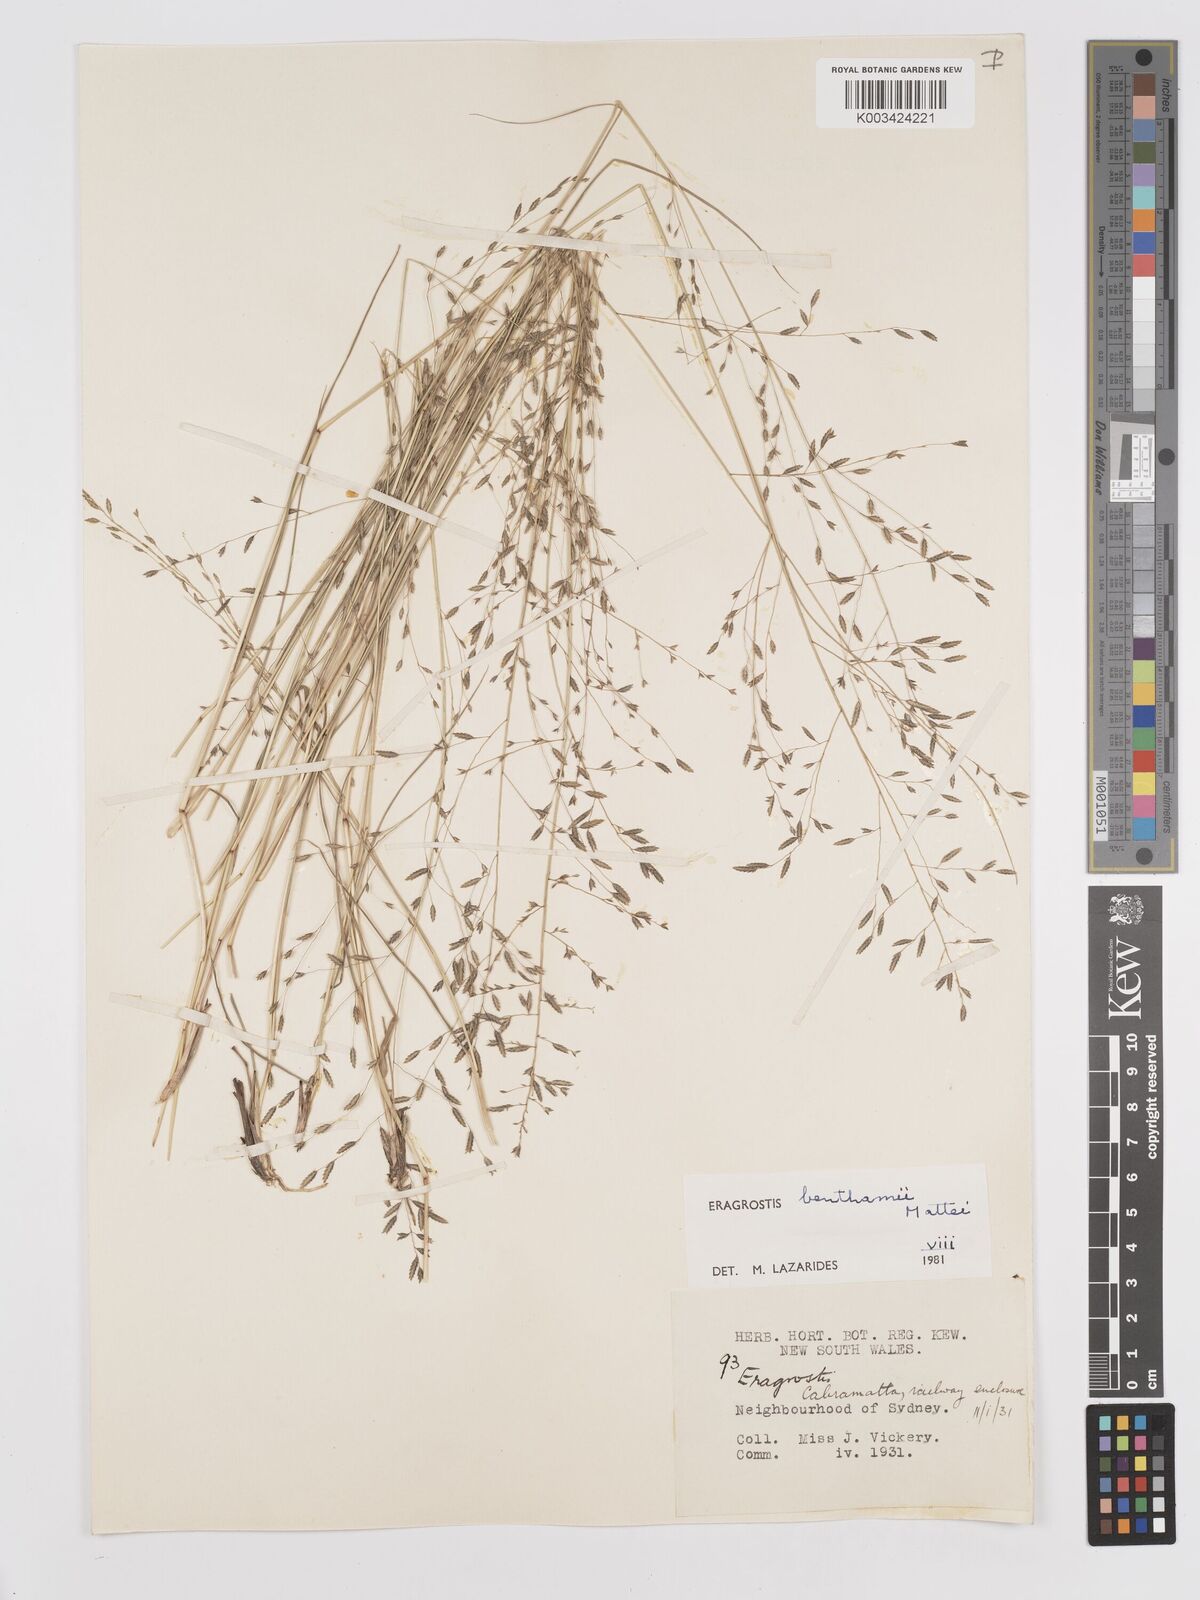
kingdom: Plantae
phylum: Tracheophyta
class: Liliopsida
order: Poales
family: Poaceae
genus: Eragrostis
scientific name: Eragrostis brownii
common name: Lovegrass
